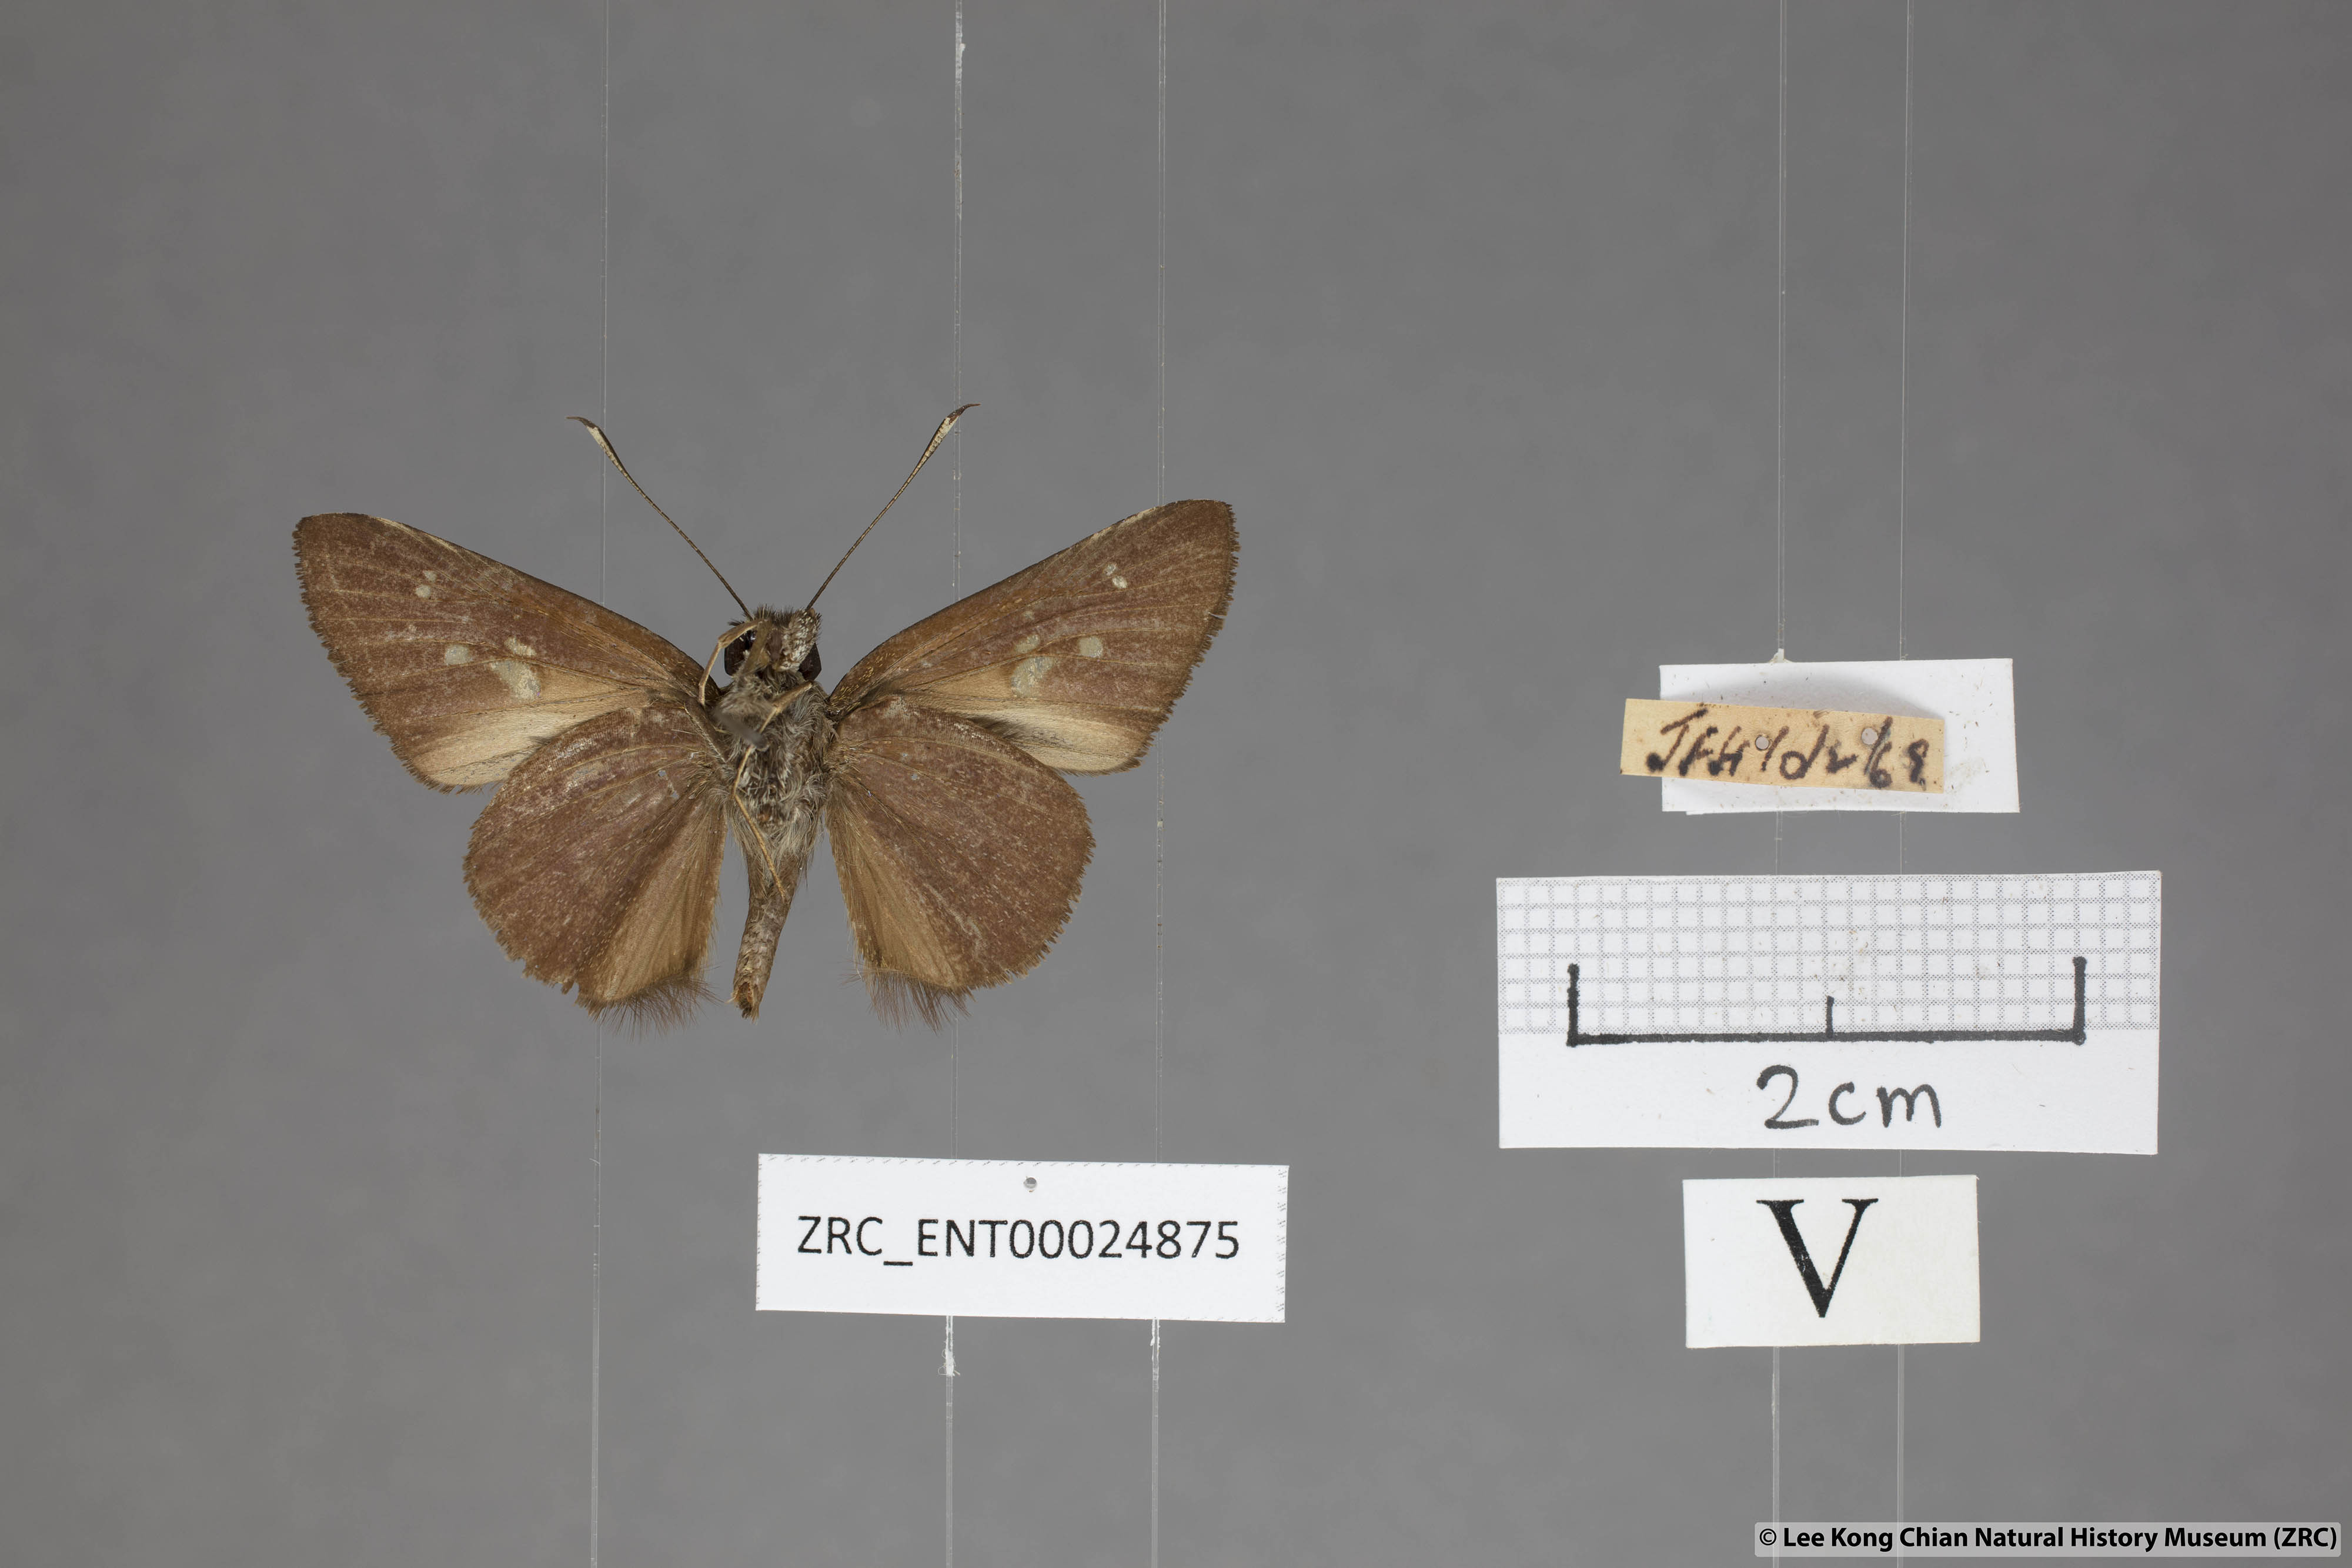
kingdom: Animalia
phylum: Arthropoda
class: Insecta
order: Lepidoptera
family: Hesperiidae
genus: Isma
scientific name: Isma protoclea
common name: Bicolour long-horned flitter
